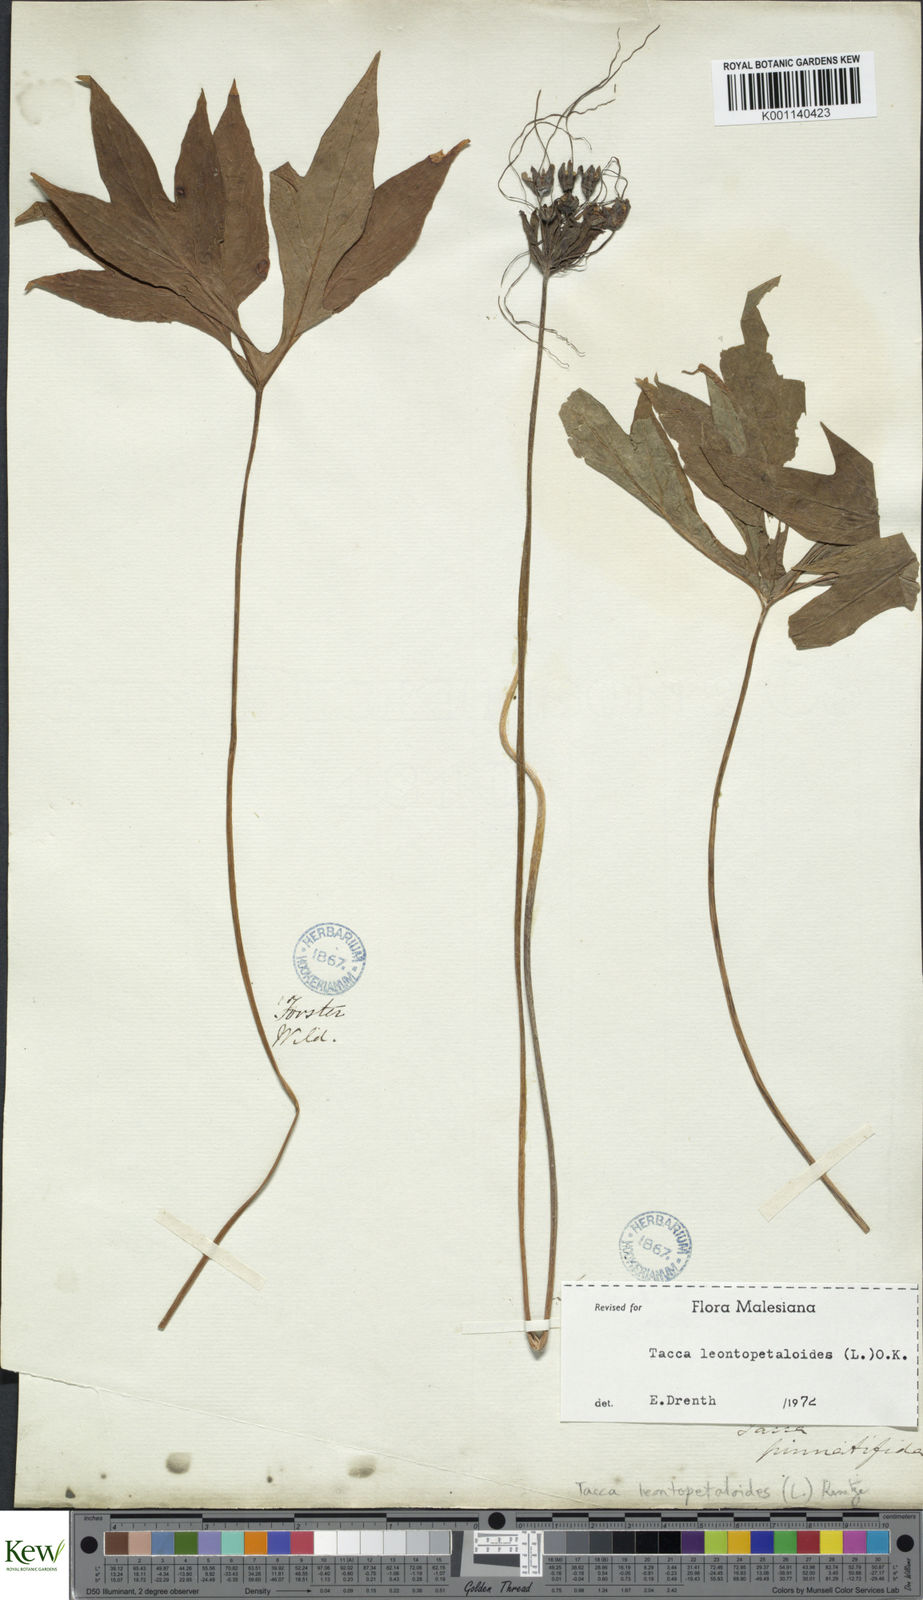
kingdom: Plantae
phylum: Tracheophyta
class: Liliopsida
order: Dioscoreales
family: Dioscoreaceae
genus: Tacca
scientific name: Tacca leontopetaloides
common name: Arrowroot
